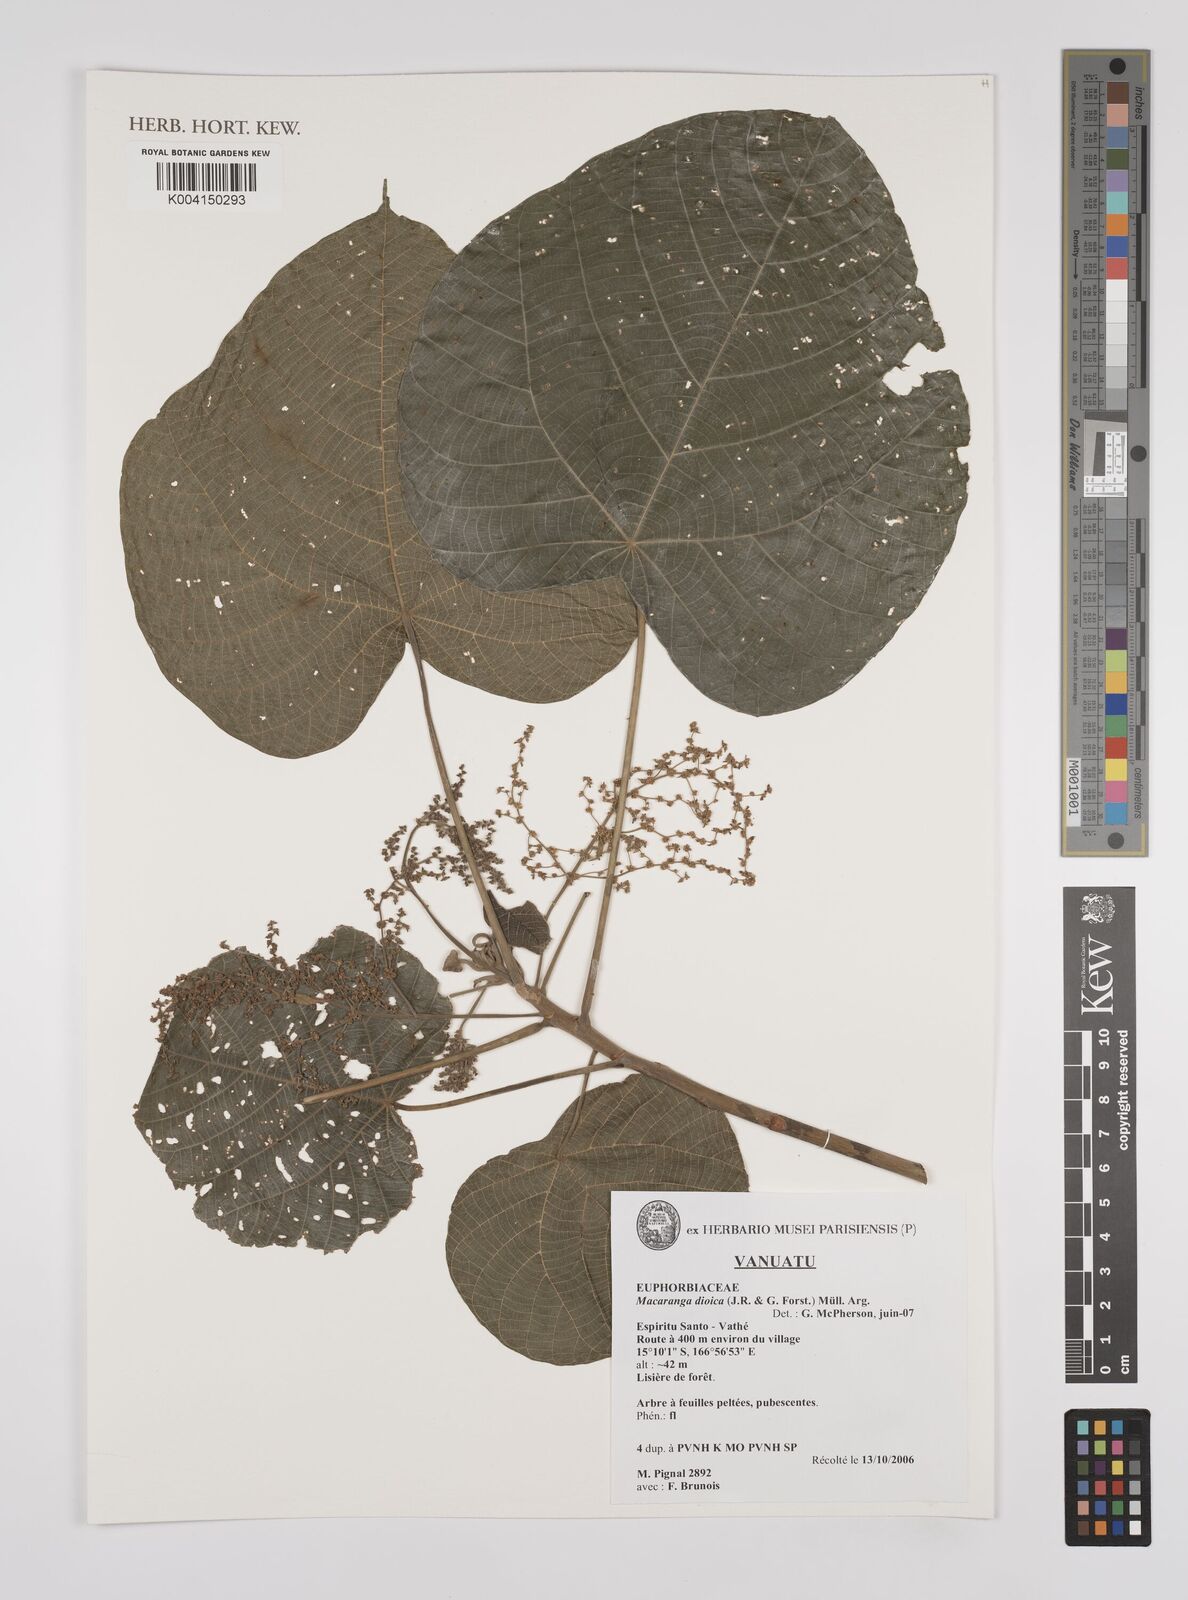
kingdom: Plantae
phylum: Tracheophyta
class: Magnoliopsida
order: Malpighiales
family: Euphorbiaceae
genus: Macaranga
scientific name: Macaranga dioica
